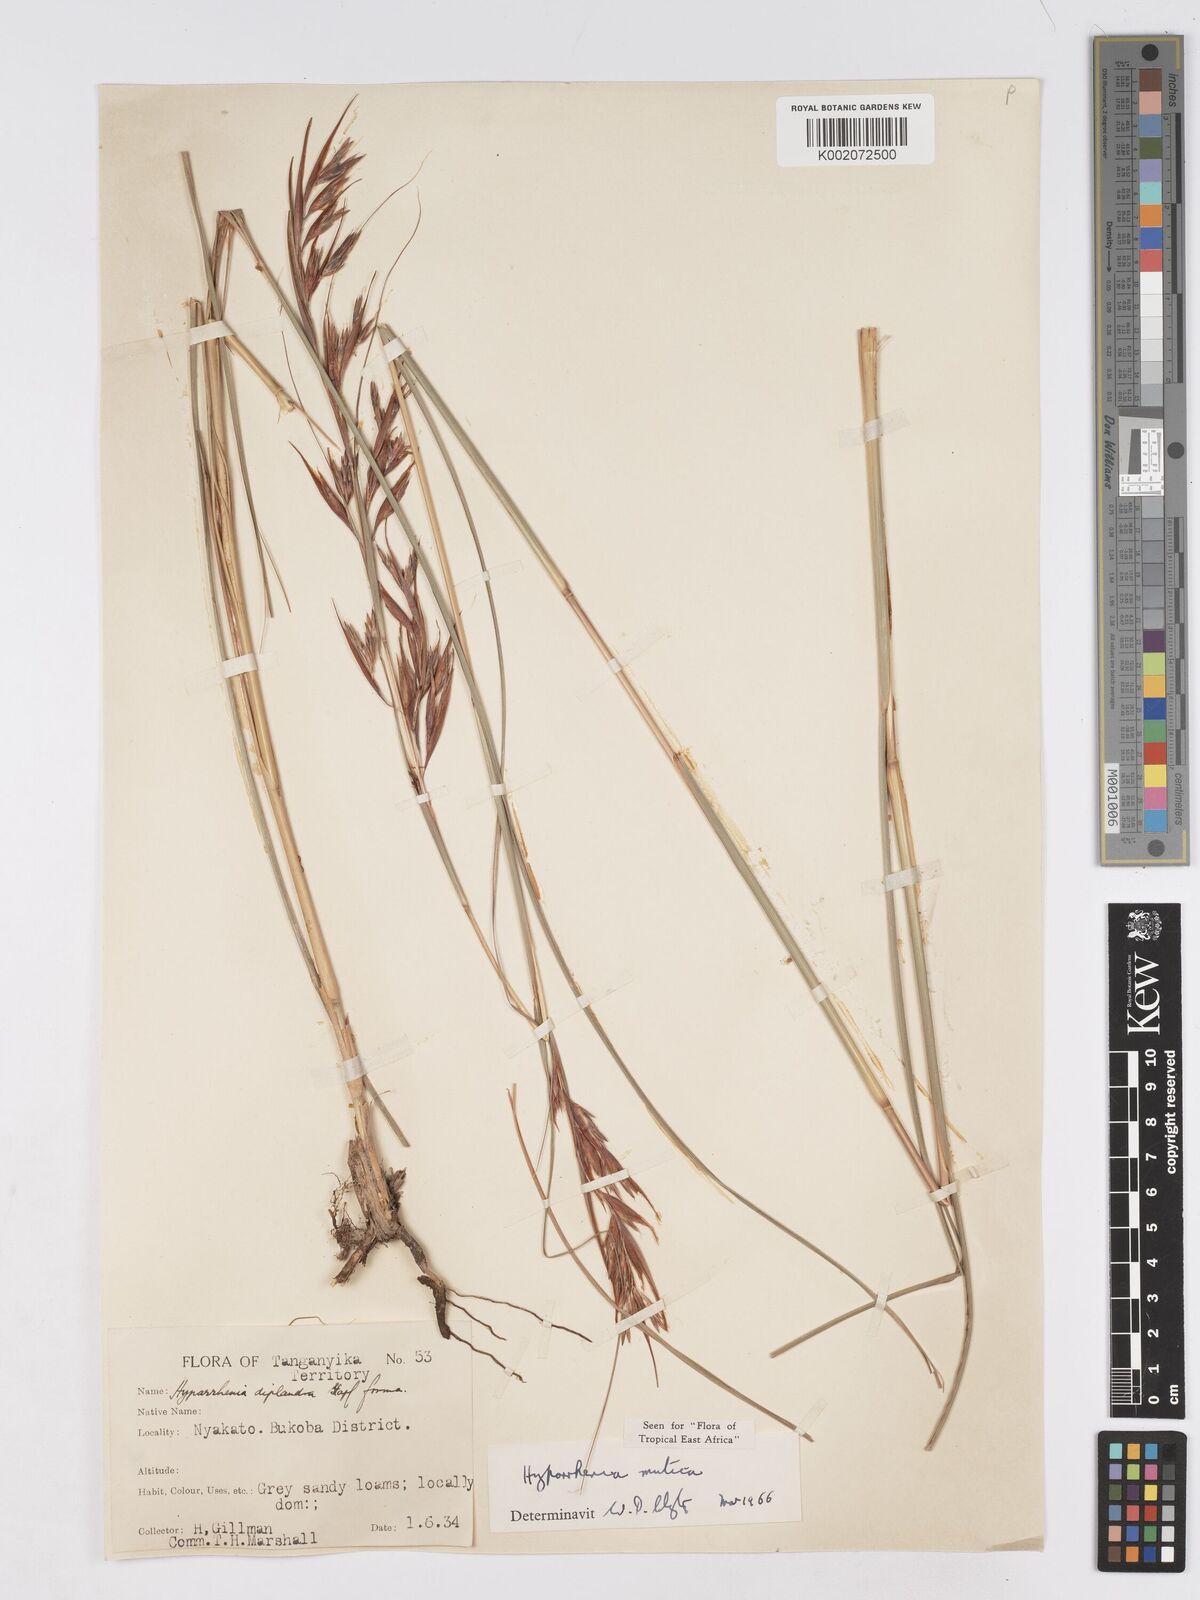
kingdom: Plantae
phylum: Tracheophyta
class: Liliopsida
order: Poales
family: Poaceae
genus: Hyparrhenia
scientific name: Hyparrhenia diplandra
